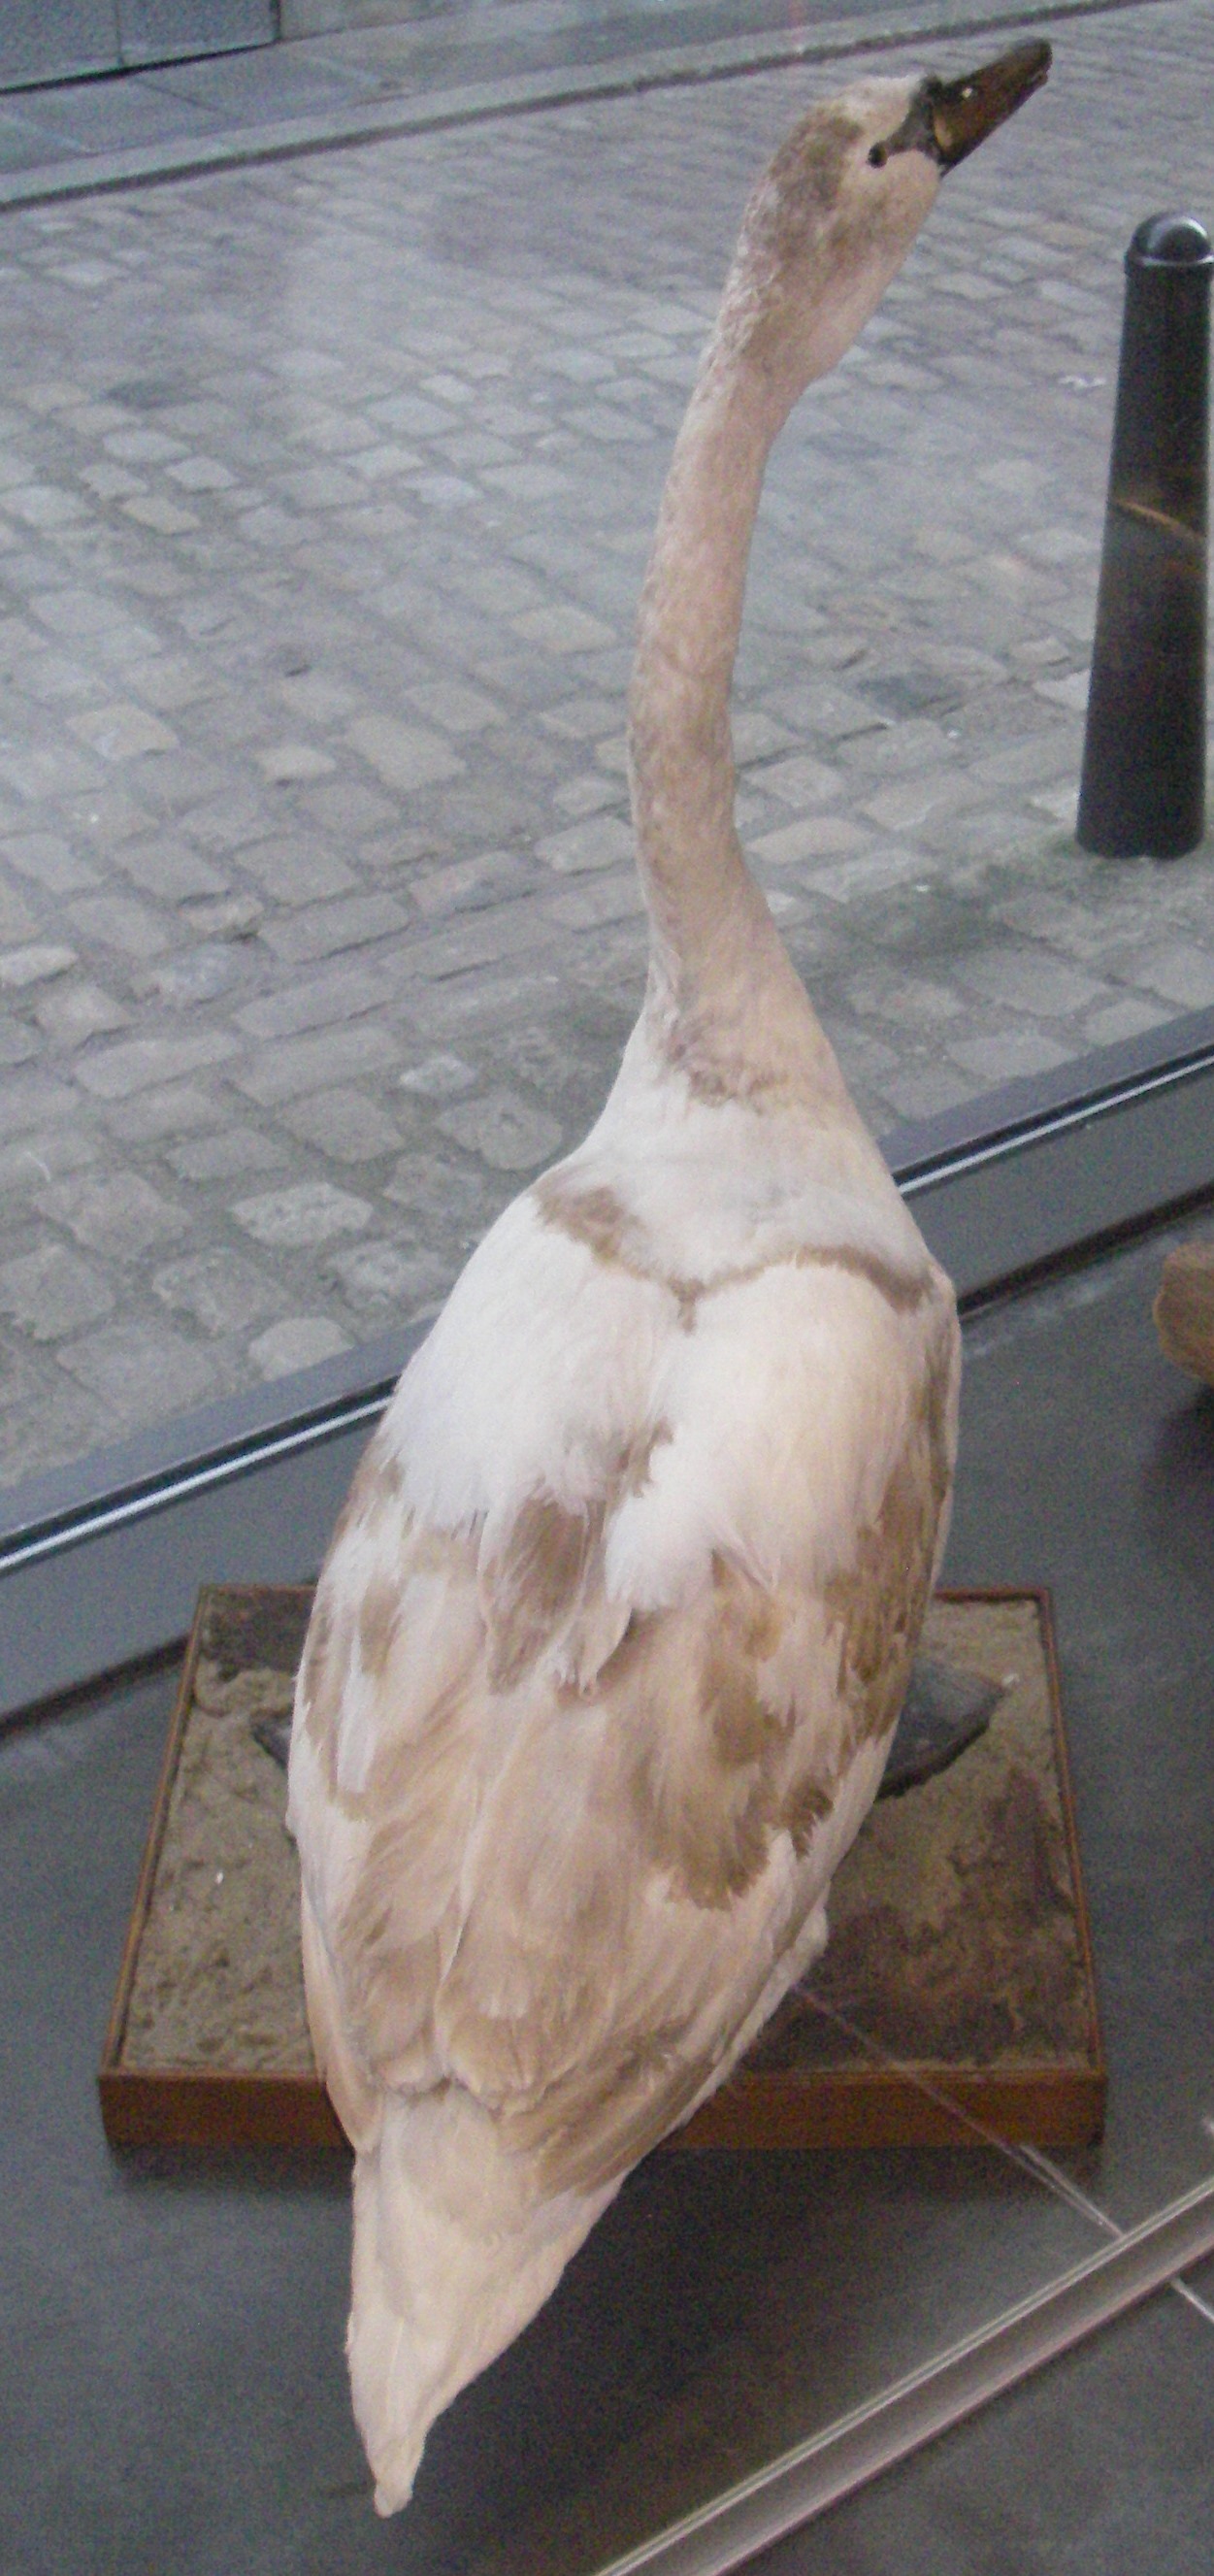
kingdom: Animalia
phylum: Chordata
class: Aves
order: Anseriformes
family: Anatidae
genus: Cygnus
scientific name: Cygnus olor
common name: Mute swan
